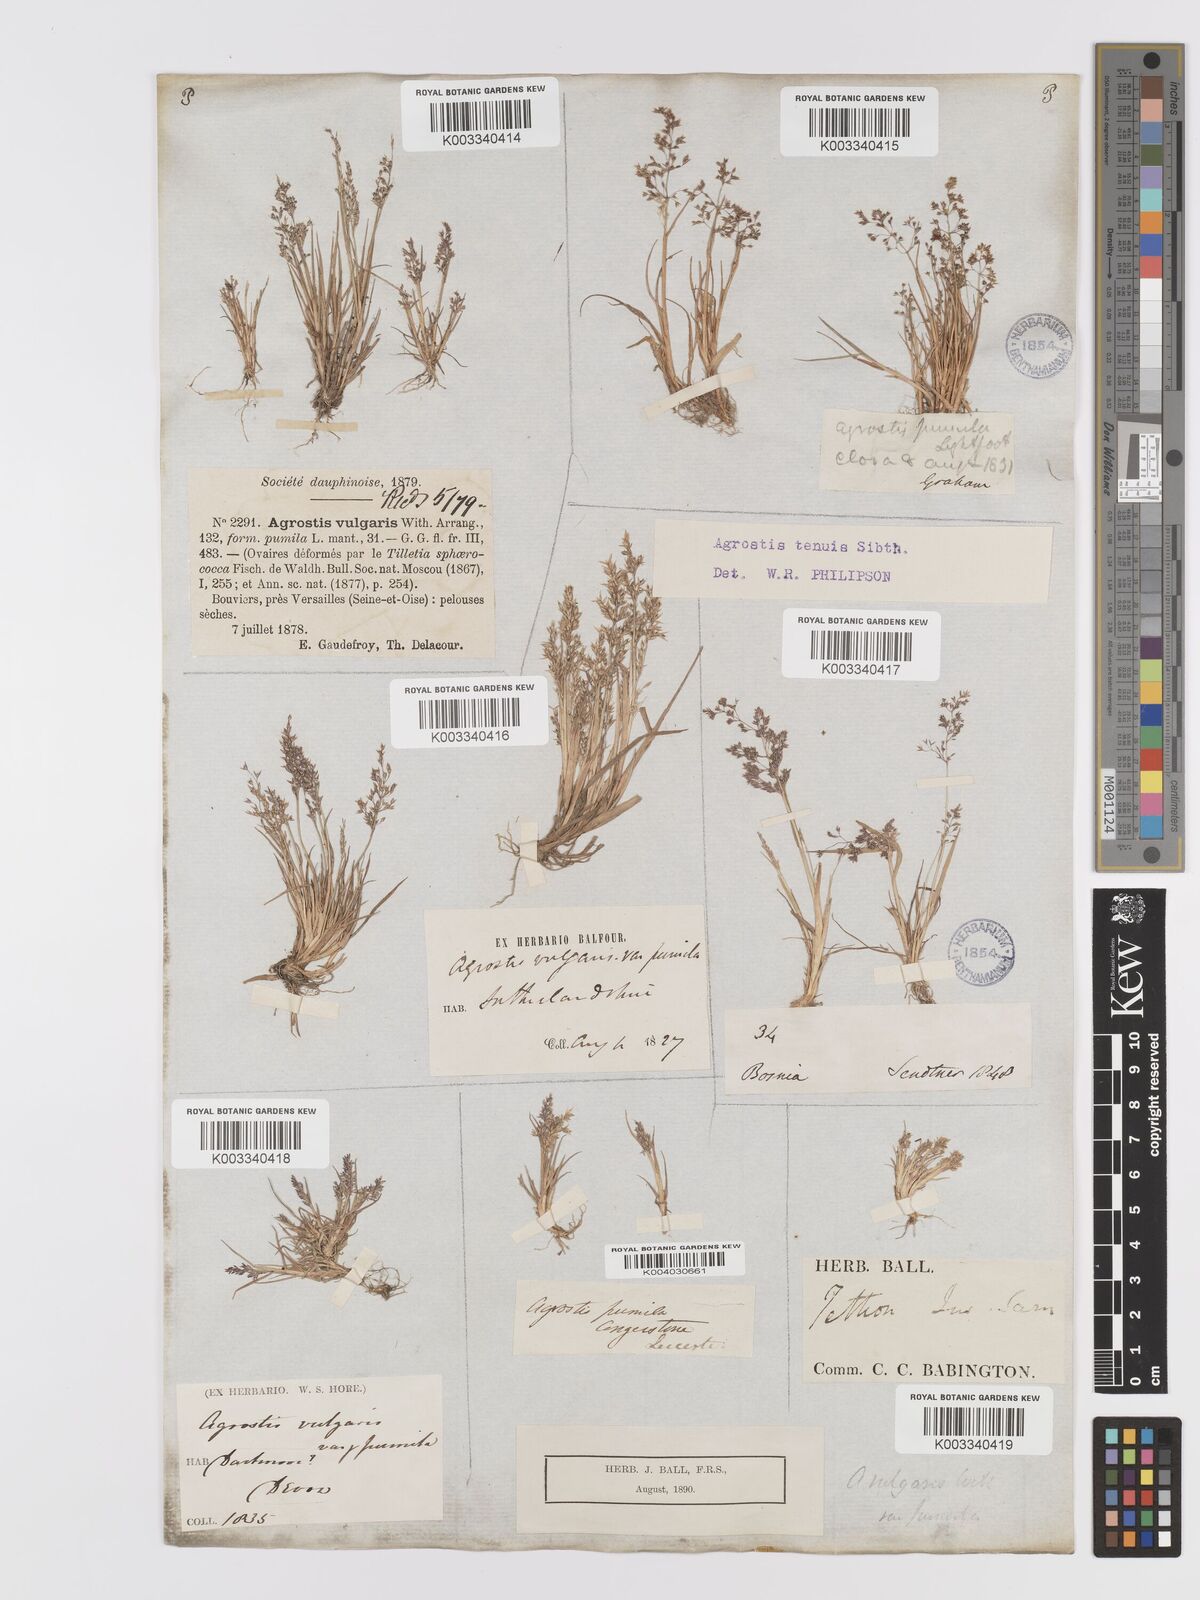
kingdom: Plantae
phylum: Tracheophyta
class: Liliopsida
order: Poales
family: Poaceae
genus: Agrostis
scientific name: Agrostis capillaris
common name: Colonial bentgrass
